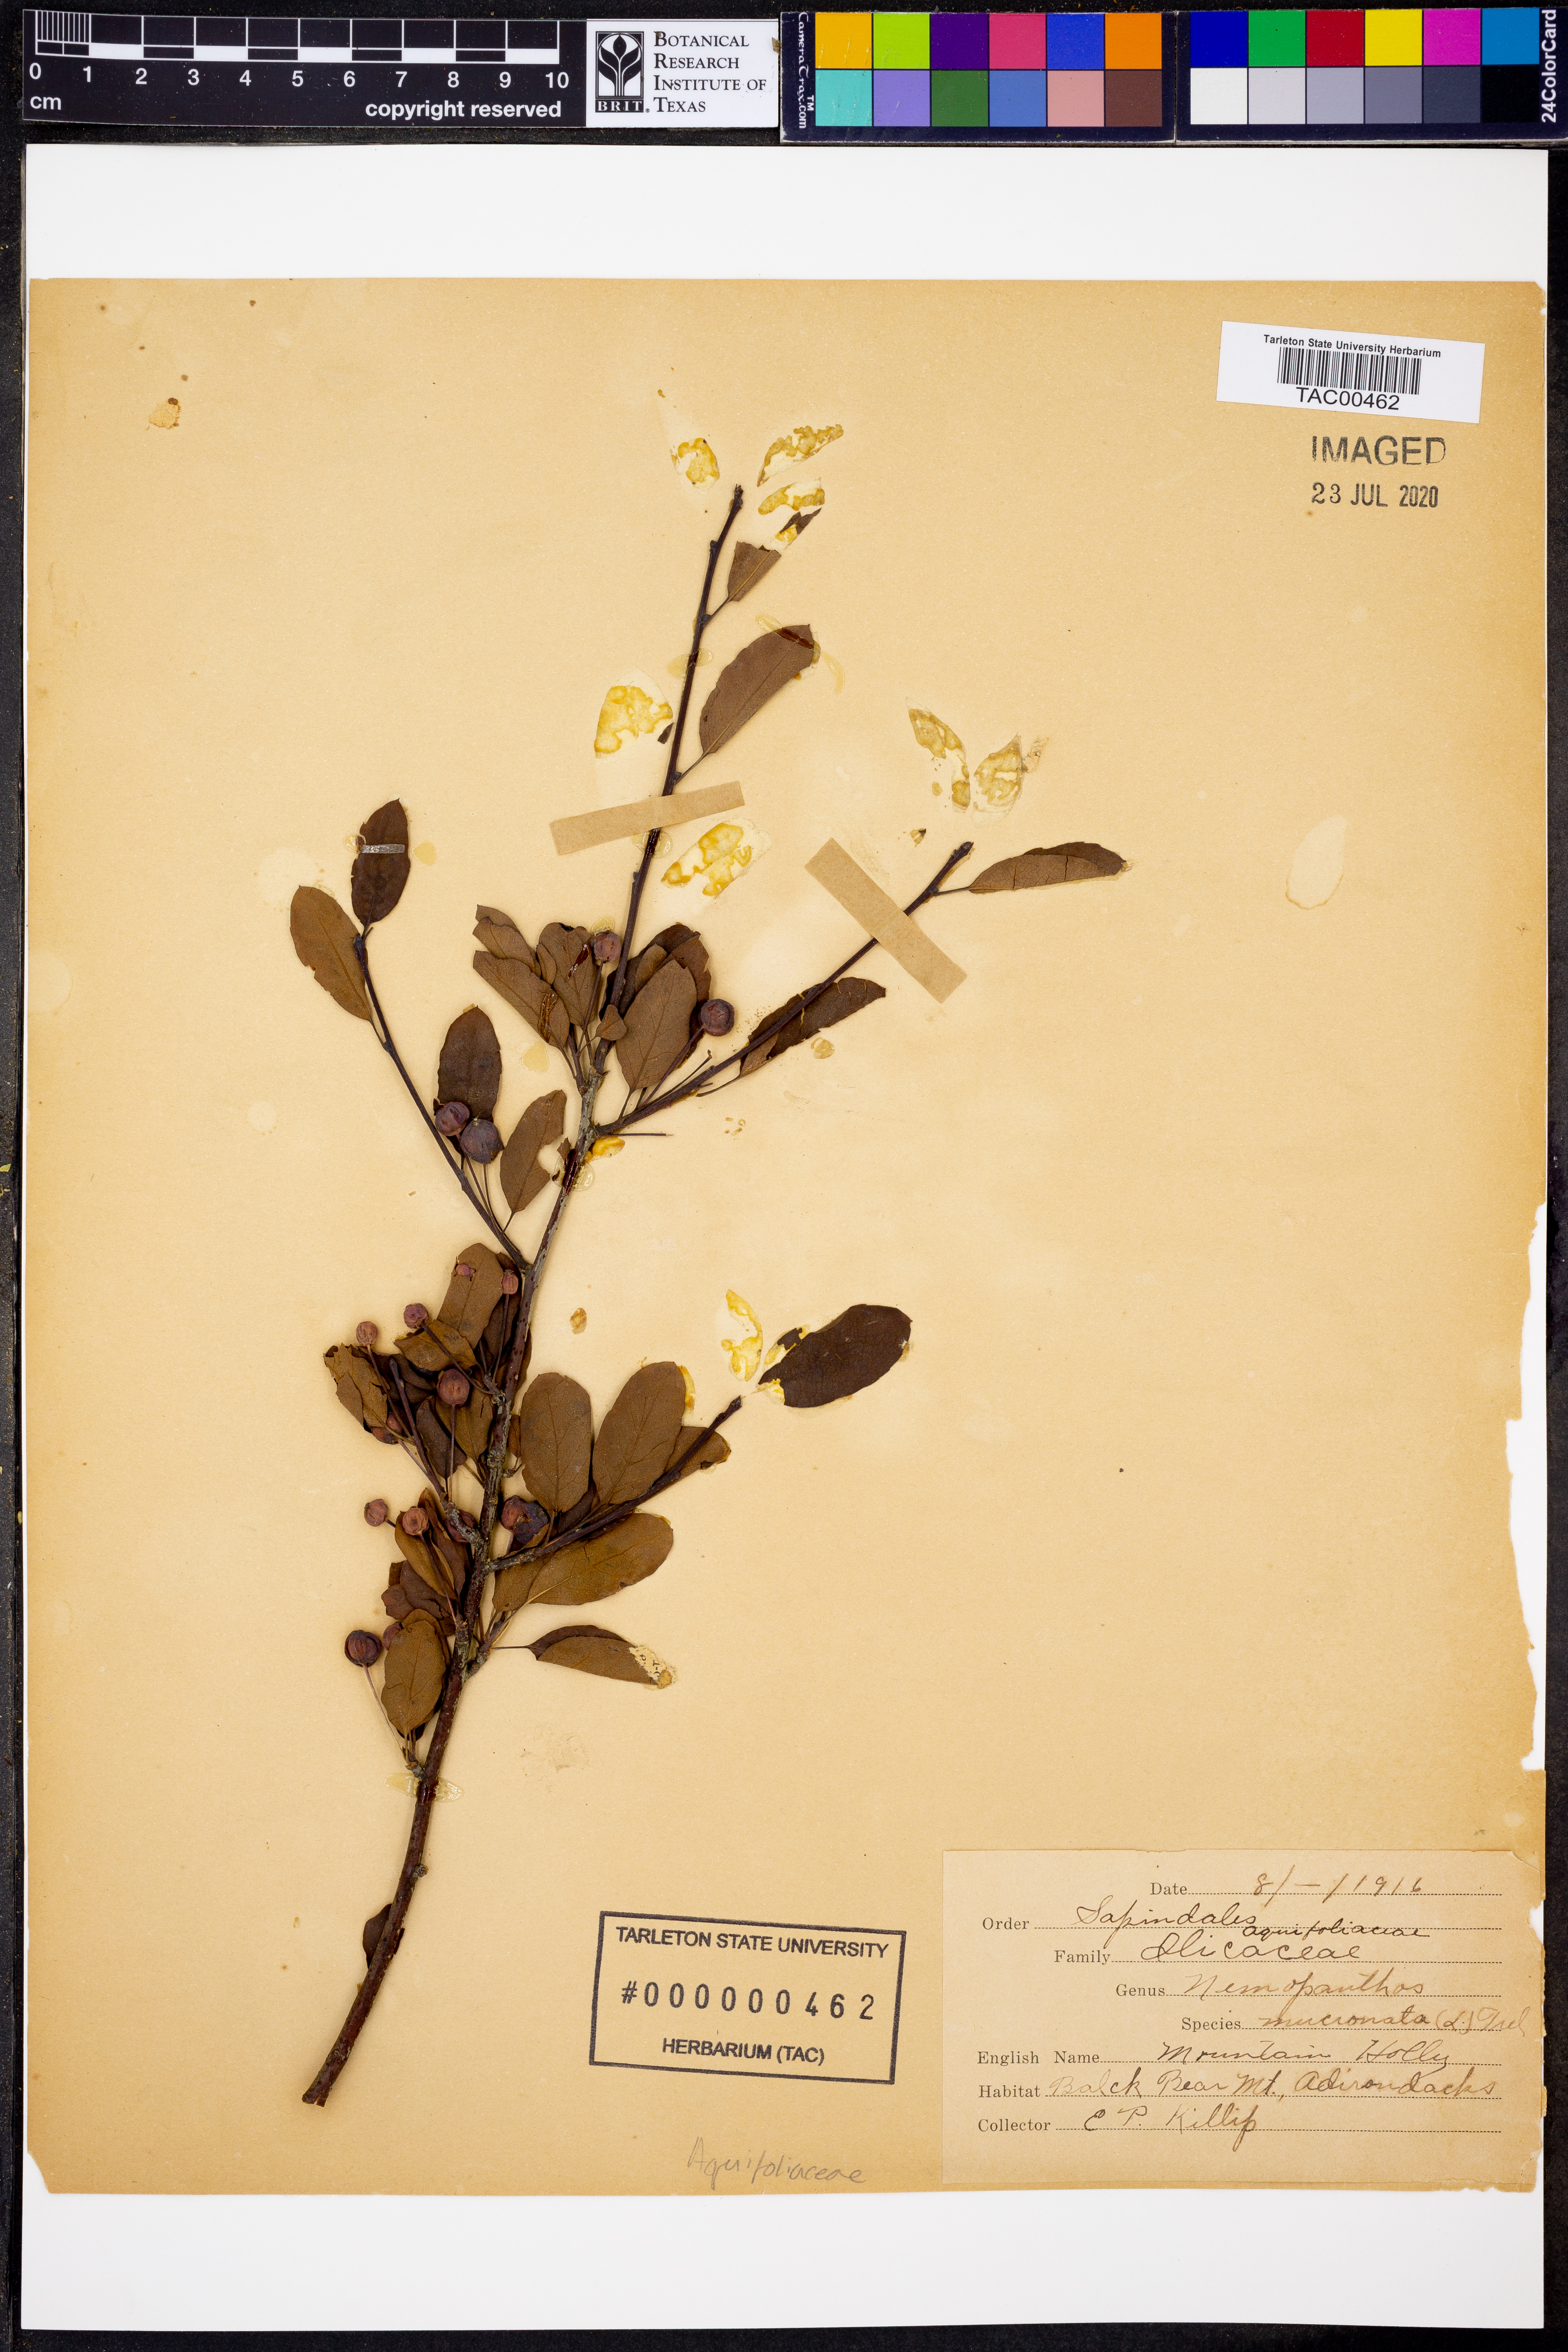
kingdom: Plantae
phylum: Tracheophyta
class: Magnoliopsida
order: Aquifoliales
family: Aquifoliaceae
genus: Ilex
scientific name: Ilex mucronata
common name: Catberry
